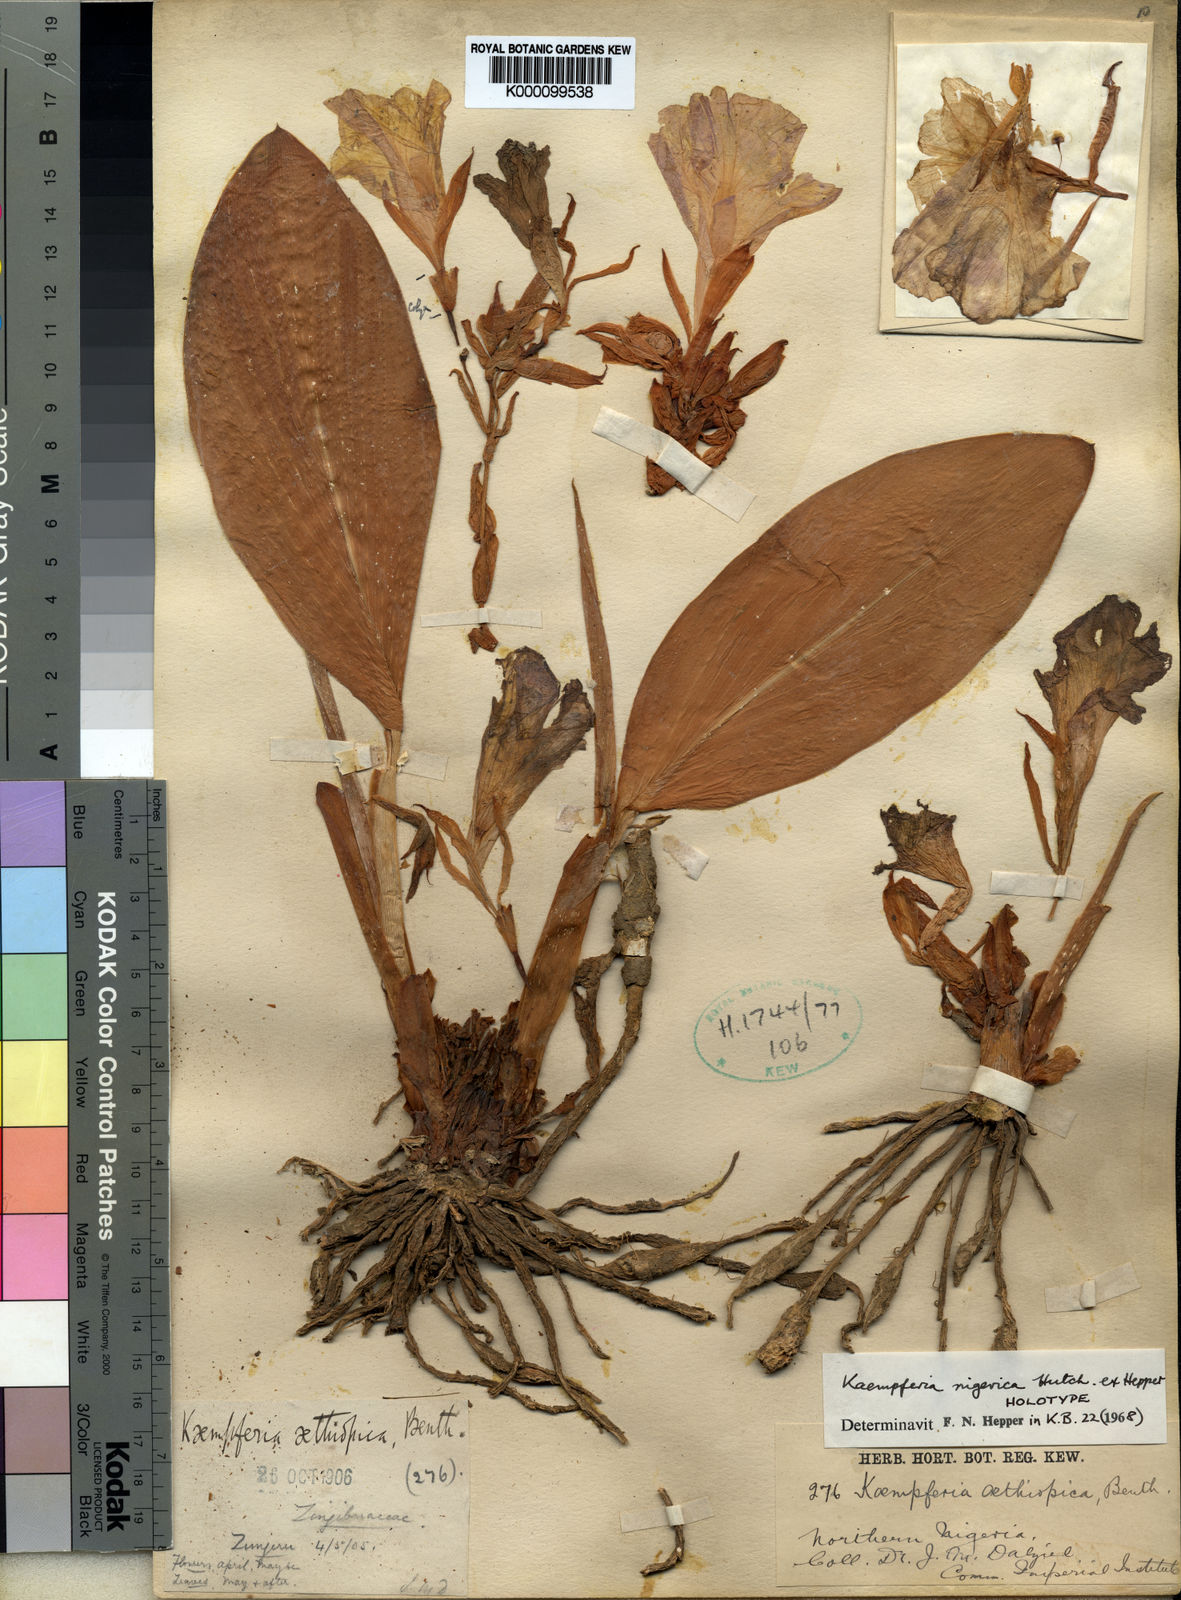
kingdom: Plantae
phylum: Tracheophyta
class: Liliopsida
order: Zingiberales
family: Zingiberaceae
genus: Siphonochilus
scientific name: Siphonochilus nigericus
